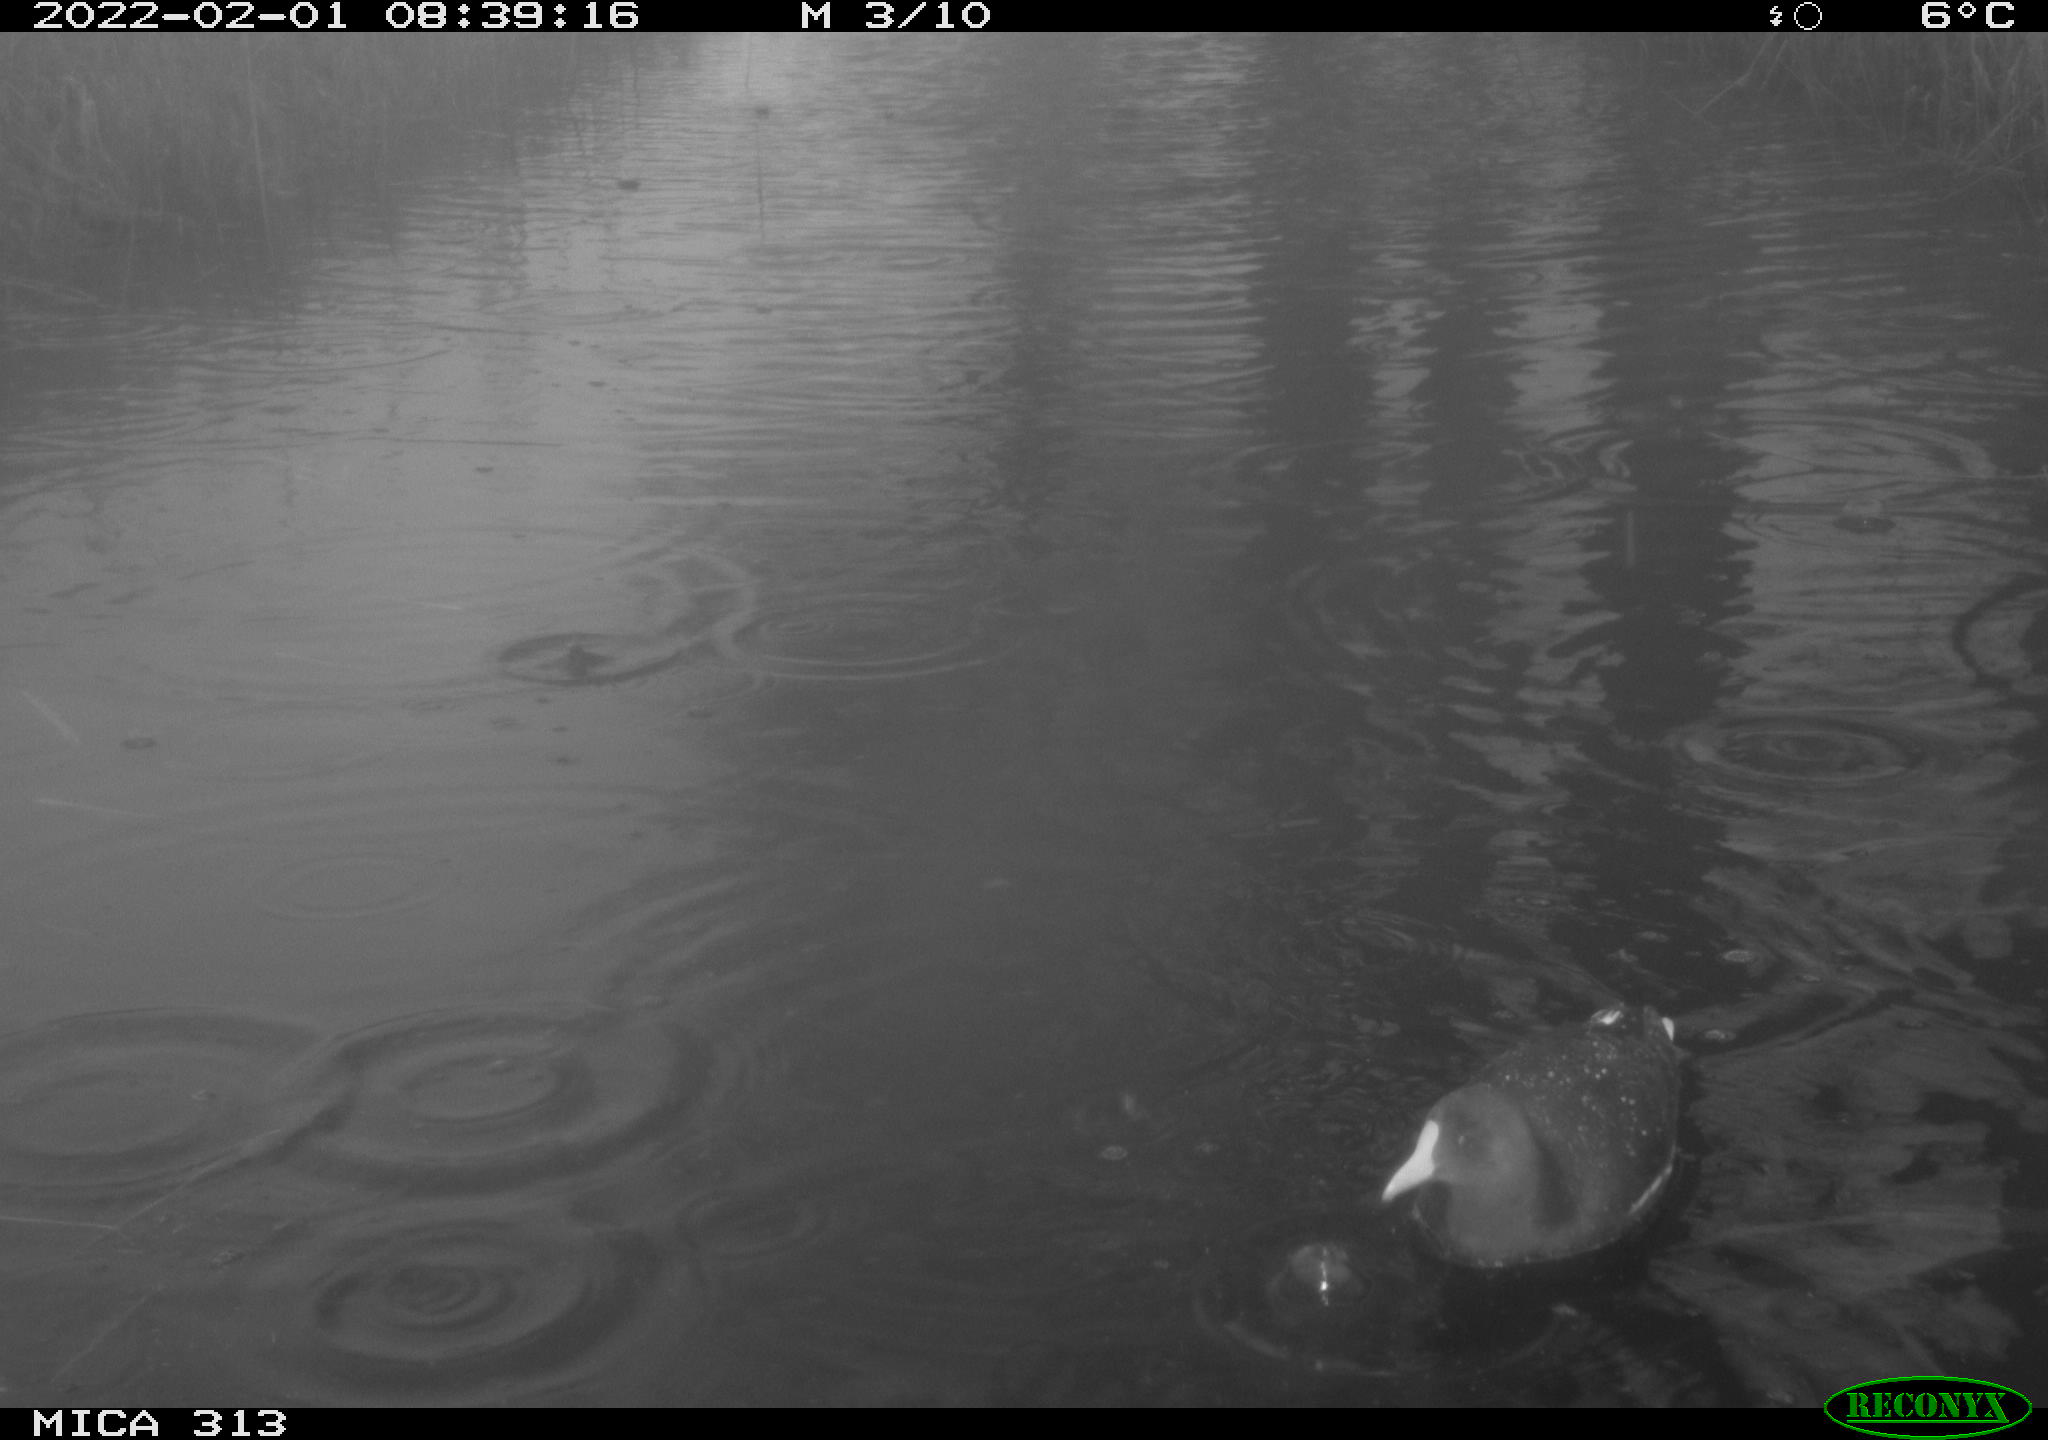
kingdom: Animalia
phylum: Chordata
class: Aves
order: Gruiformes
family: Rallidae
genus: Gallinula
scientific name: Gallinula chloropus
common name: Common moorhen
